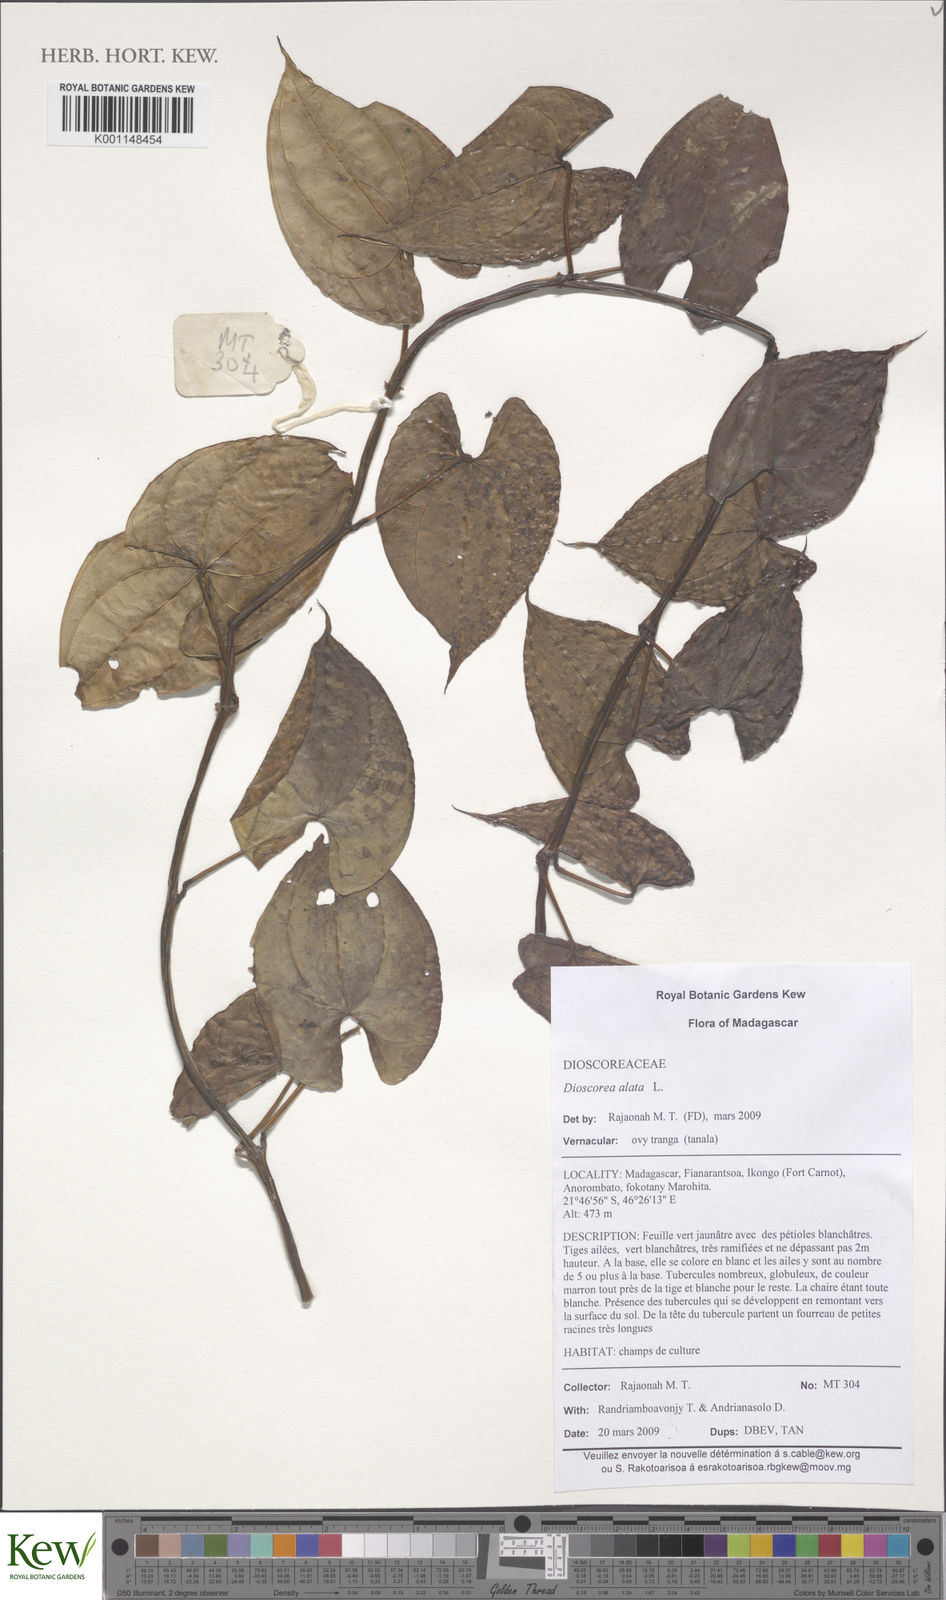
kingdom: Plantae
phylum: Tracheophyta
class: Liliopsida
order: Dioscoreales
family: Dioscoreaceae
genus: Dioscorea
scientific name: Dioscorea alata
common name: Water yam
